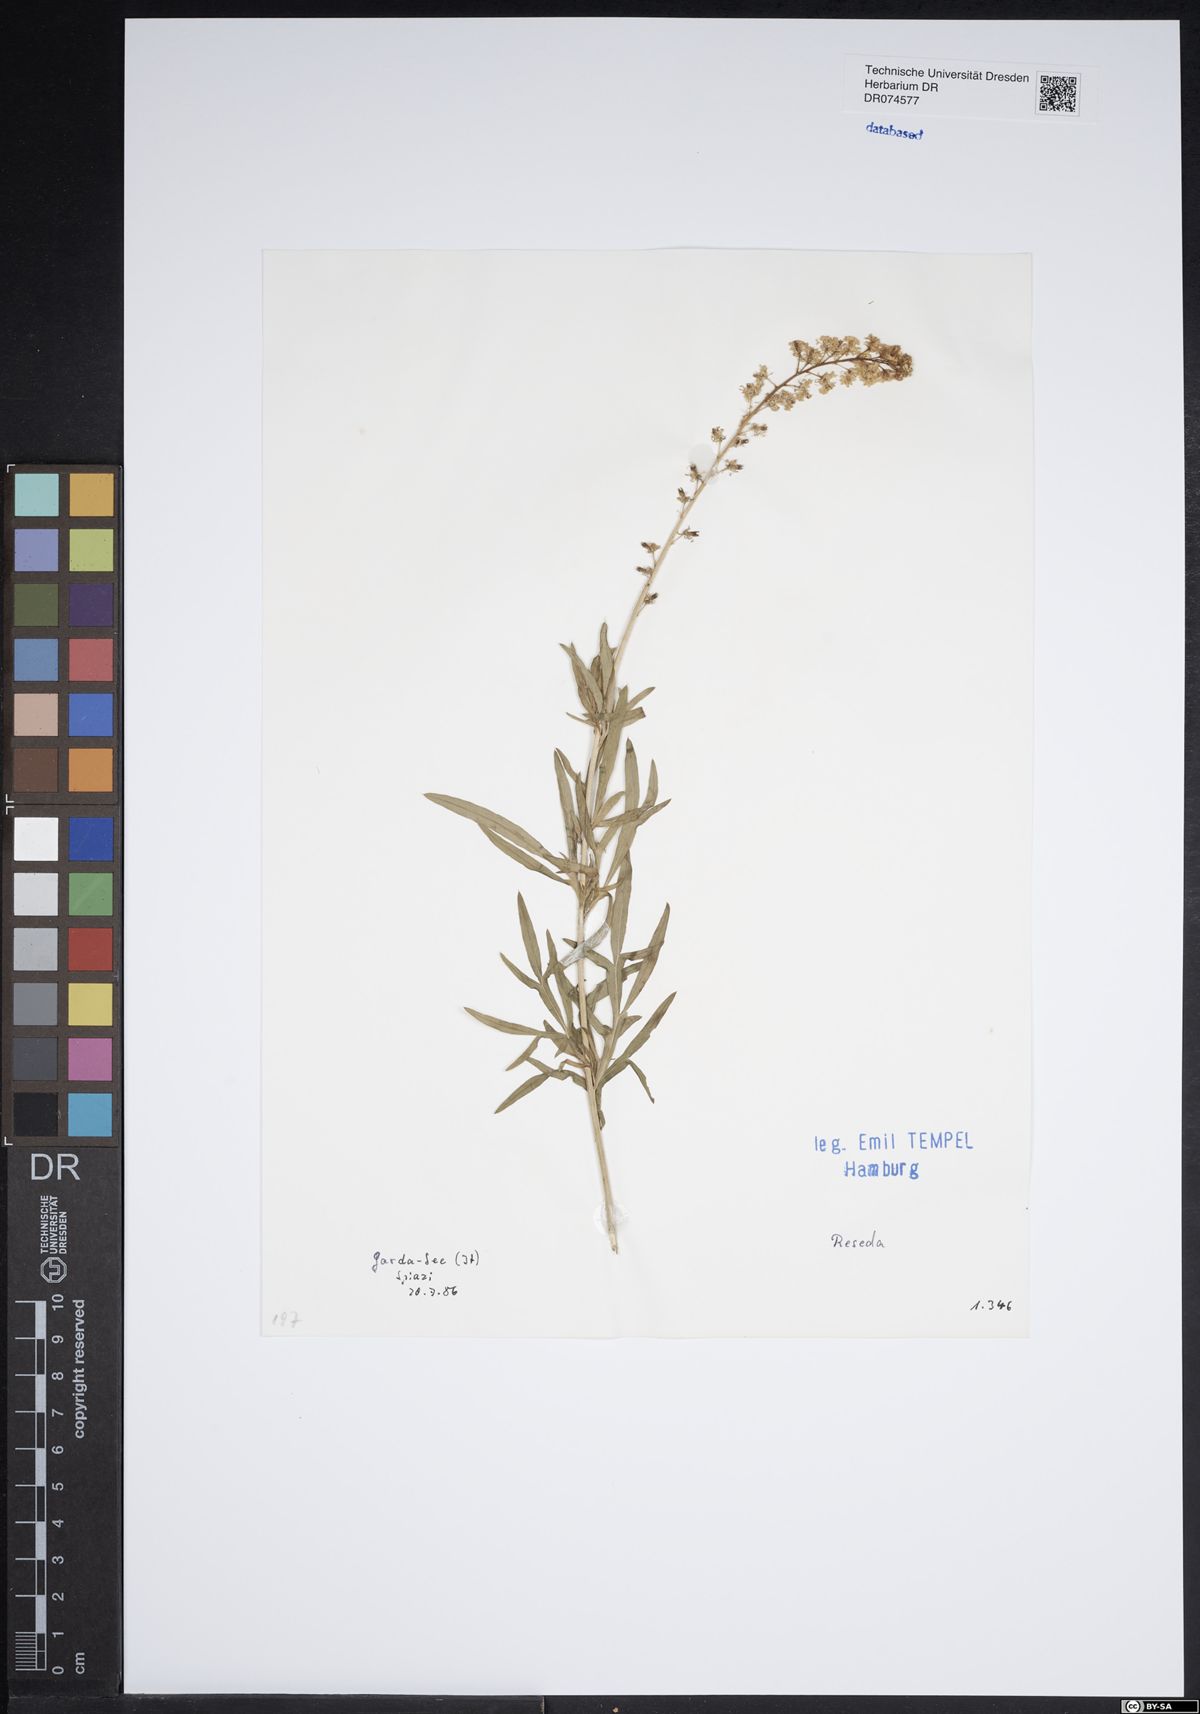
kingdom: Plantae
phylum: Tracheophyta
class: Magnoliopsida
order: Brassicales
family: Resedaceae
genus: Reseda
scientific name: Reseda
